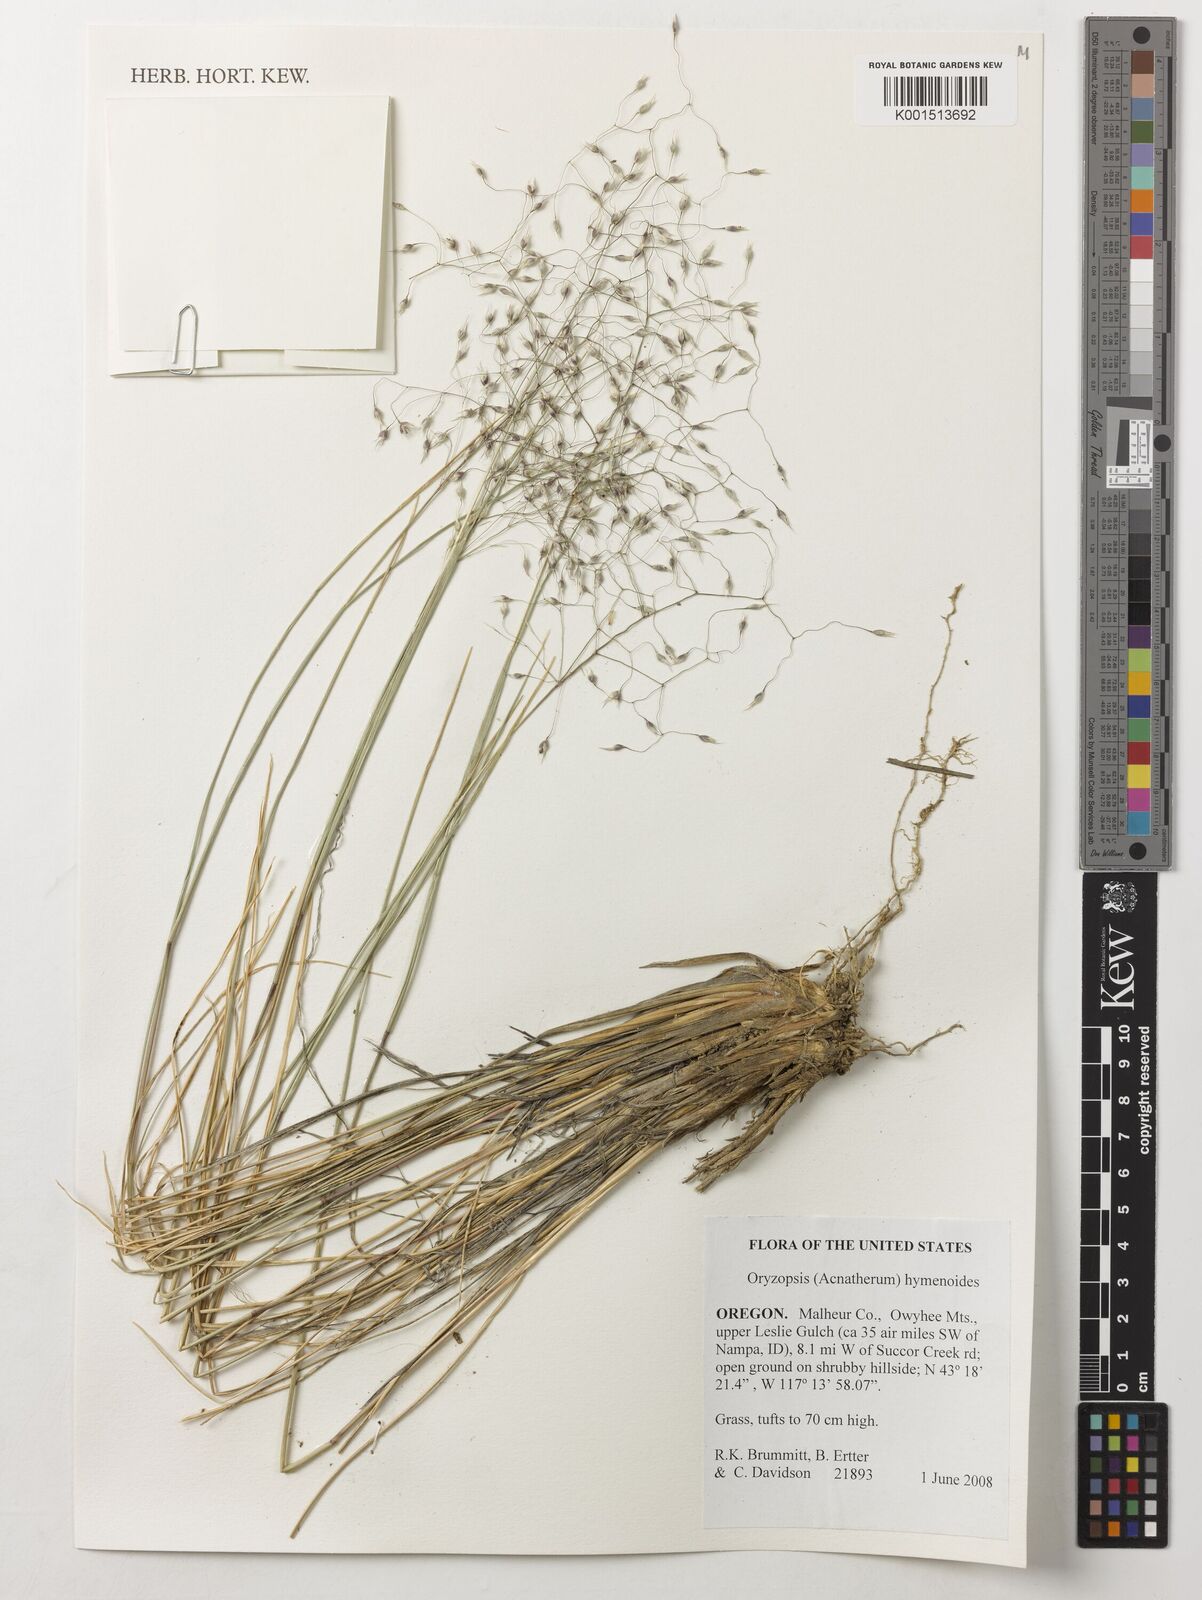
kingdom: Plantae
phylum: Tracheophyta
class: Liliopsida
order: Poales
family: Poaceae
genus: Eriocoma
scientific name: Eriocoma hymenoides
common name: Indian mountain ricegrass
